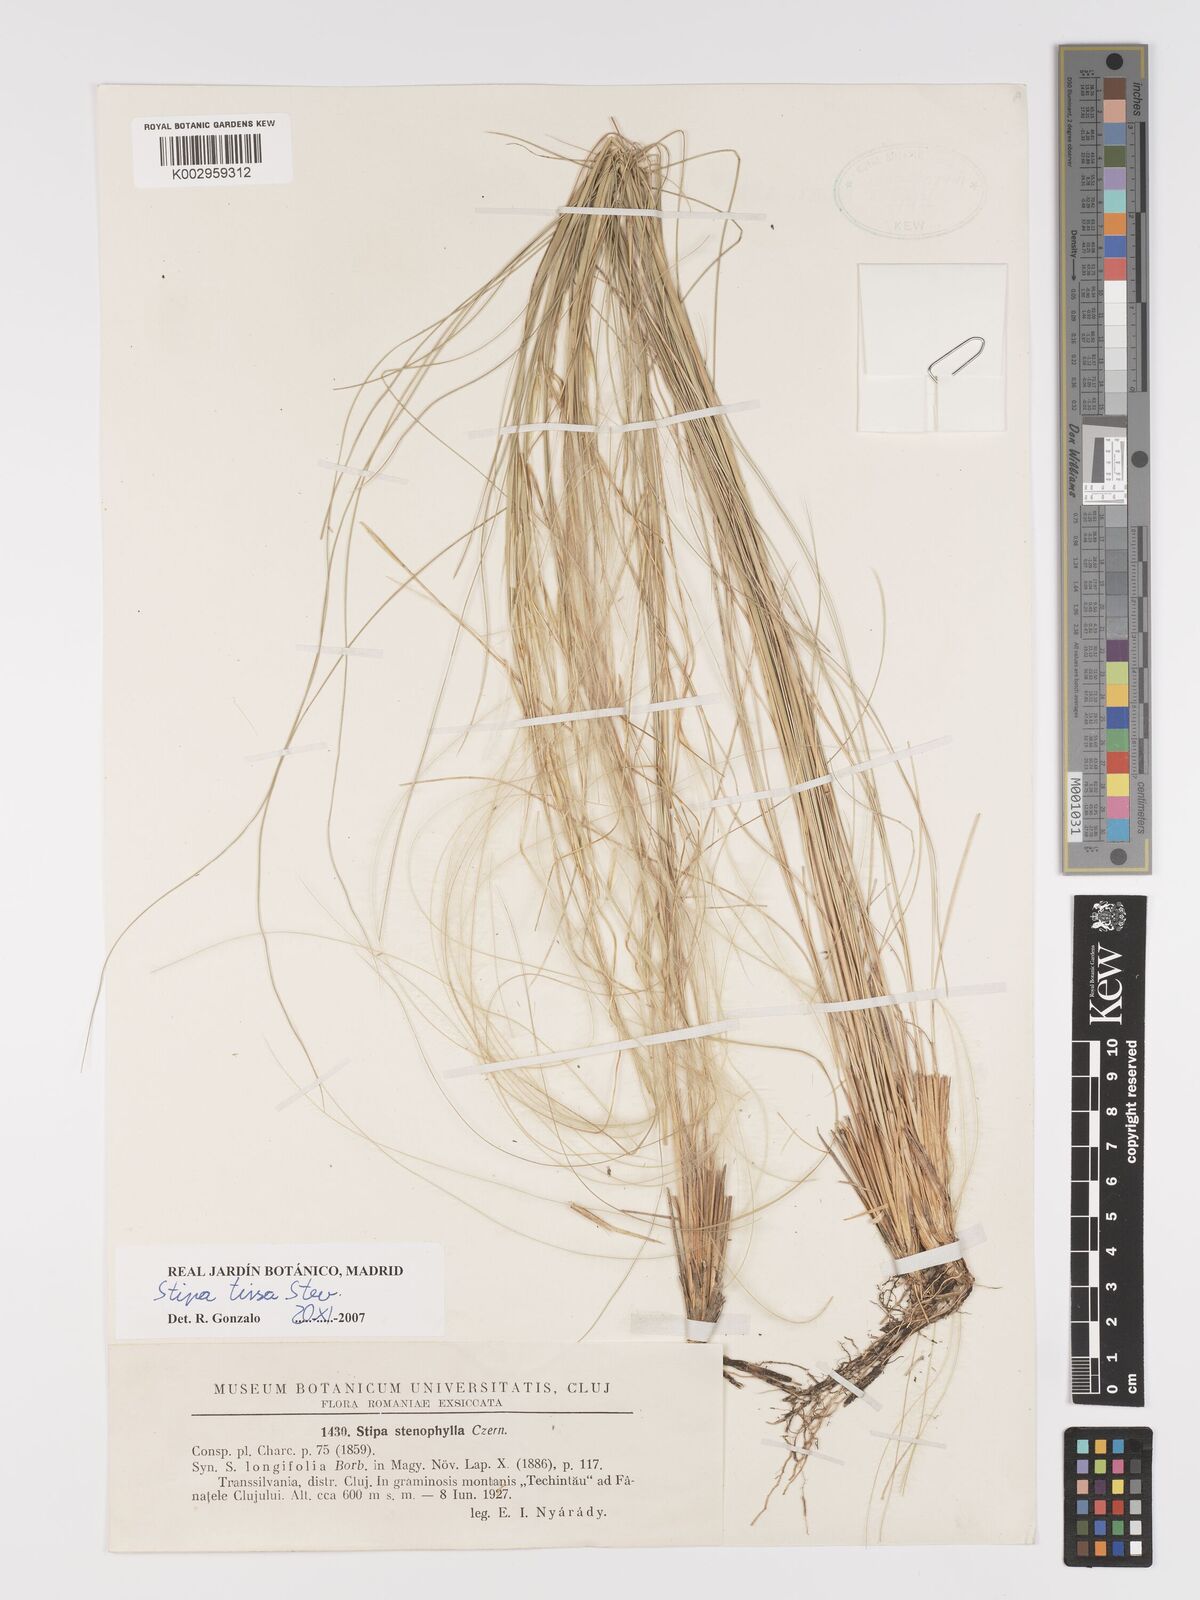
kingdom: Plantae
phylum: Tracheophyta
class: Liliopsida
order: Poales
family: Poaceae
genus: Stipa
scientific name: Stipa tirsa
